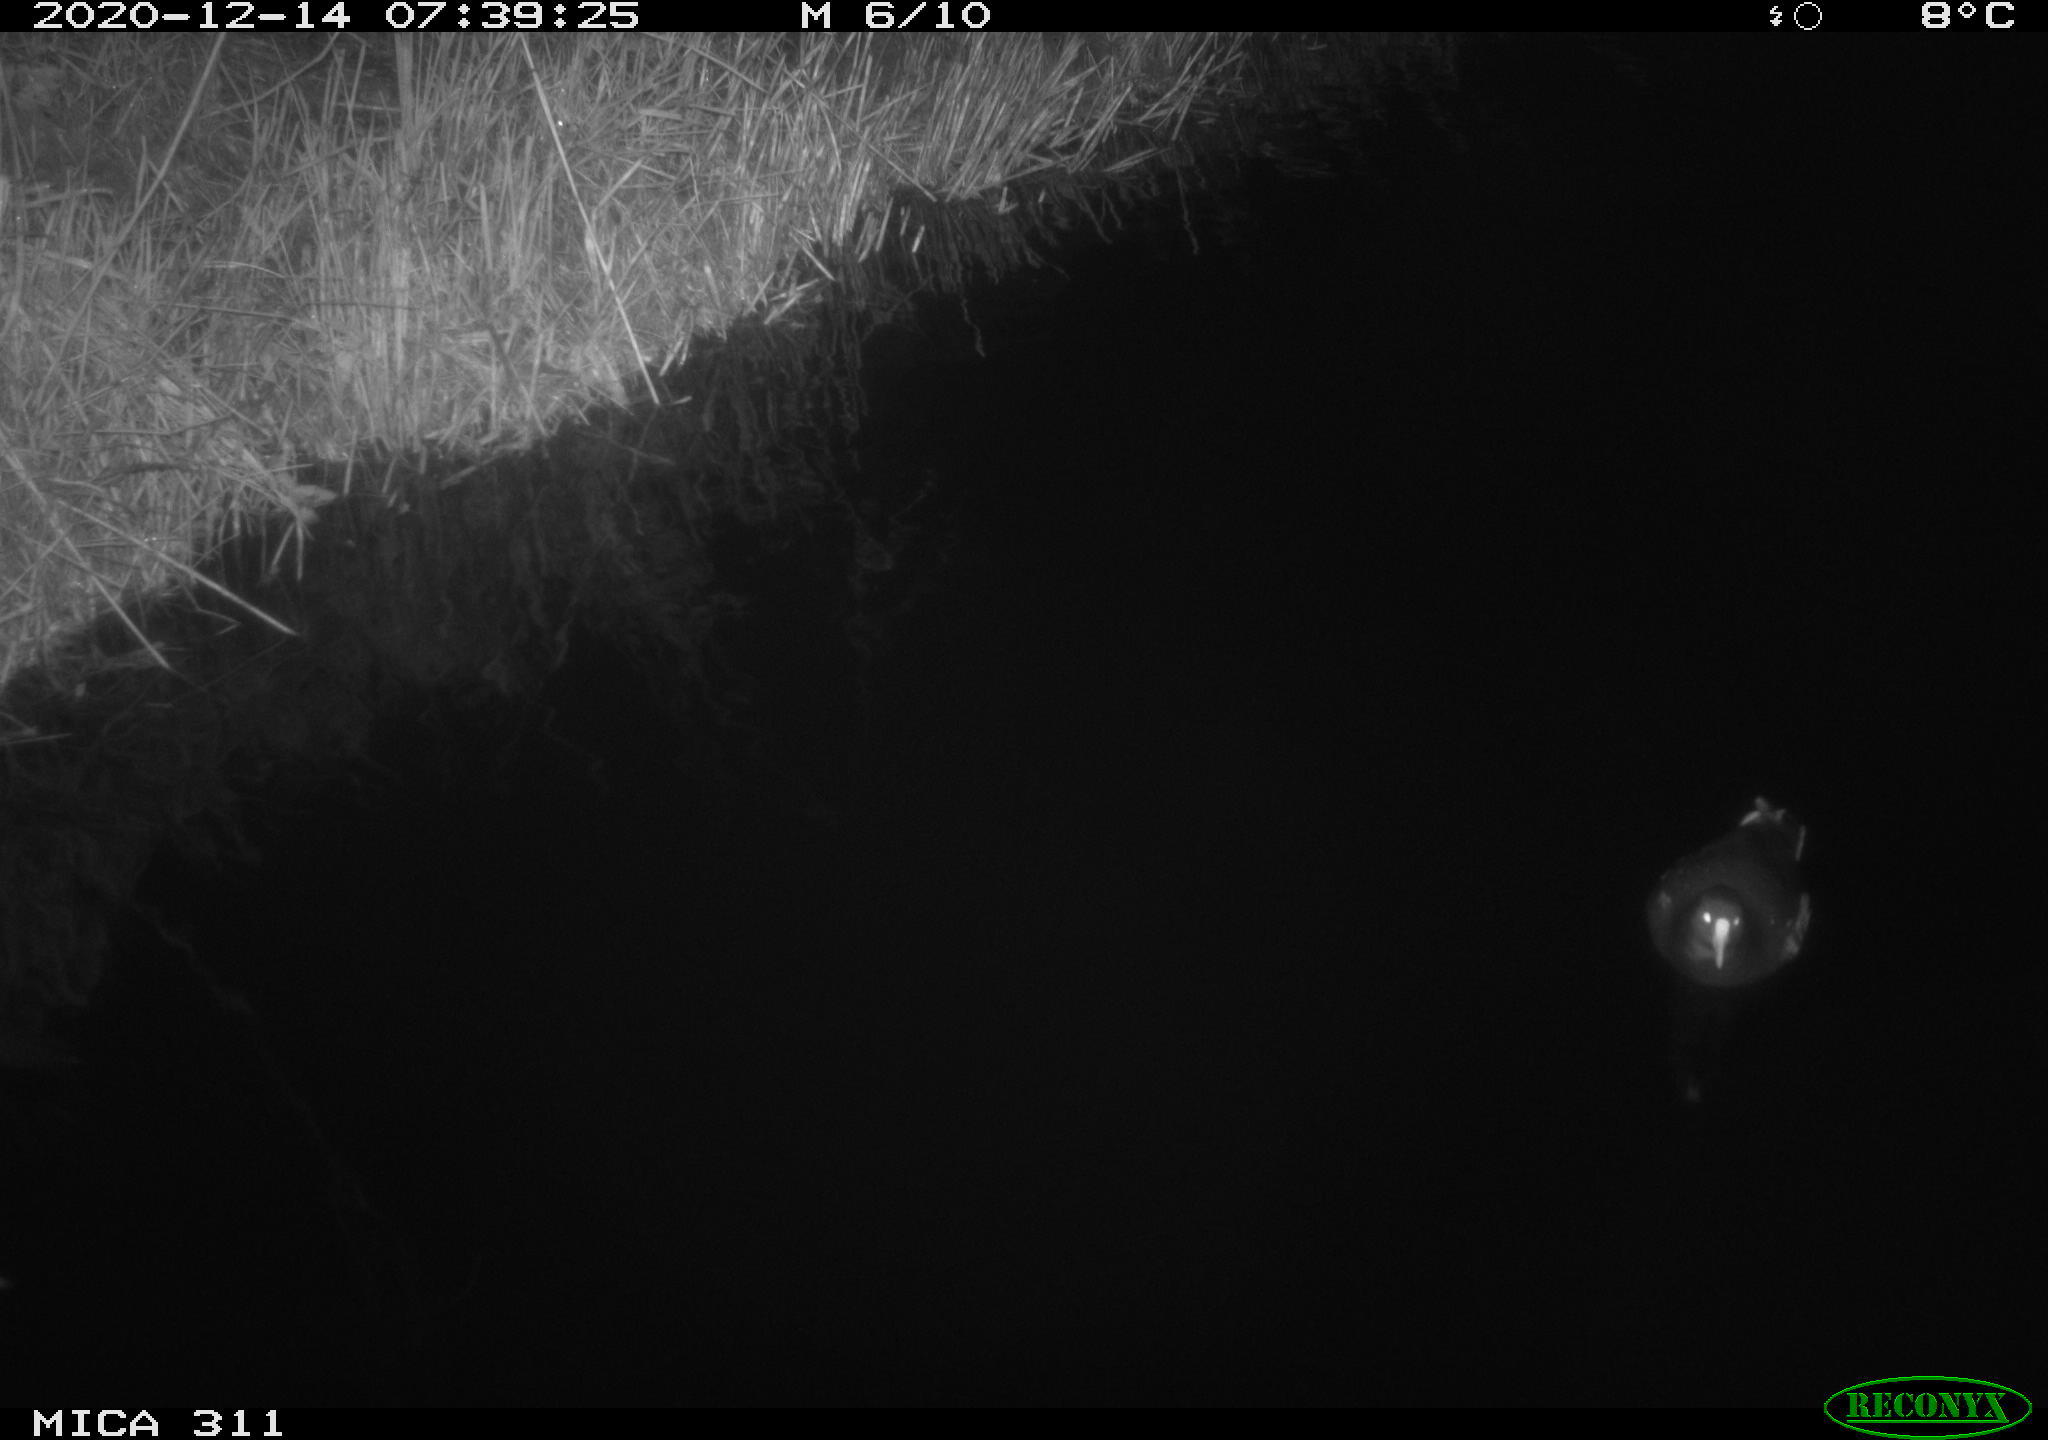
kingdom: Animalia
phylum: Chordata
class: Aves
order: Gruiformes
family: Rallidae
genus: Gallinula
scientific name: Gallinula chloropus
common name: Common moorhen
